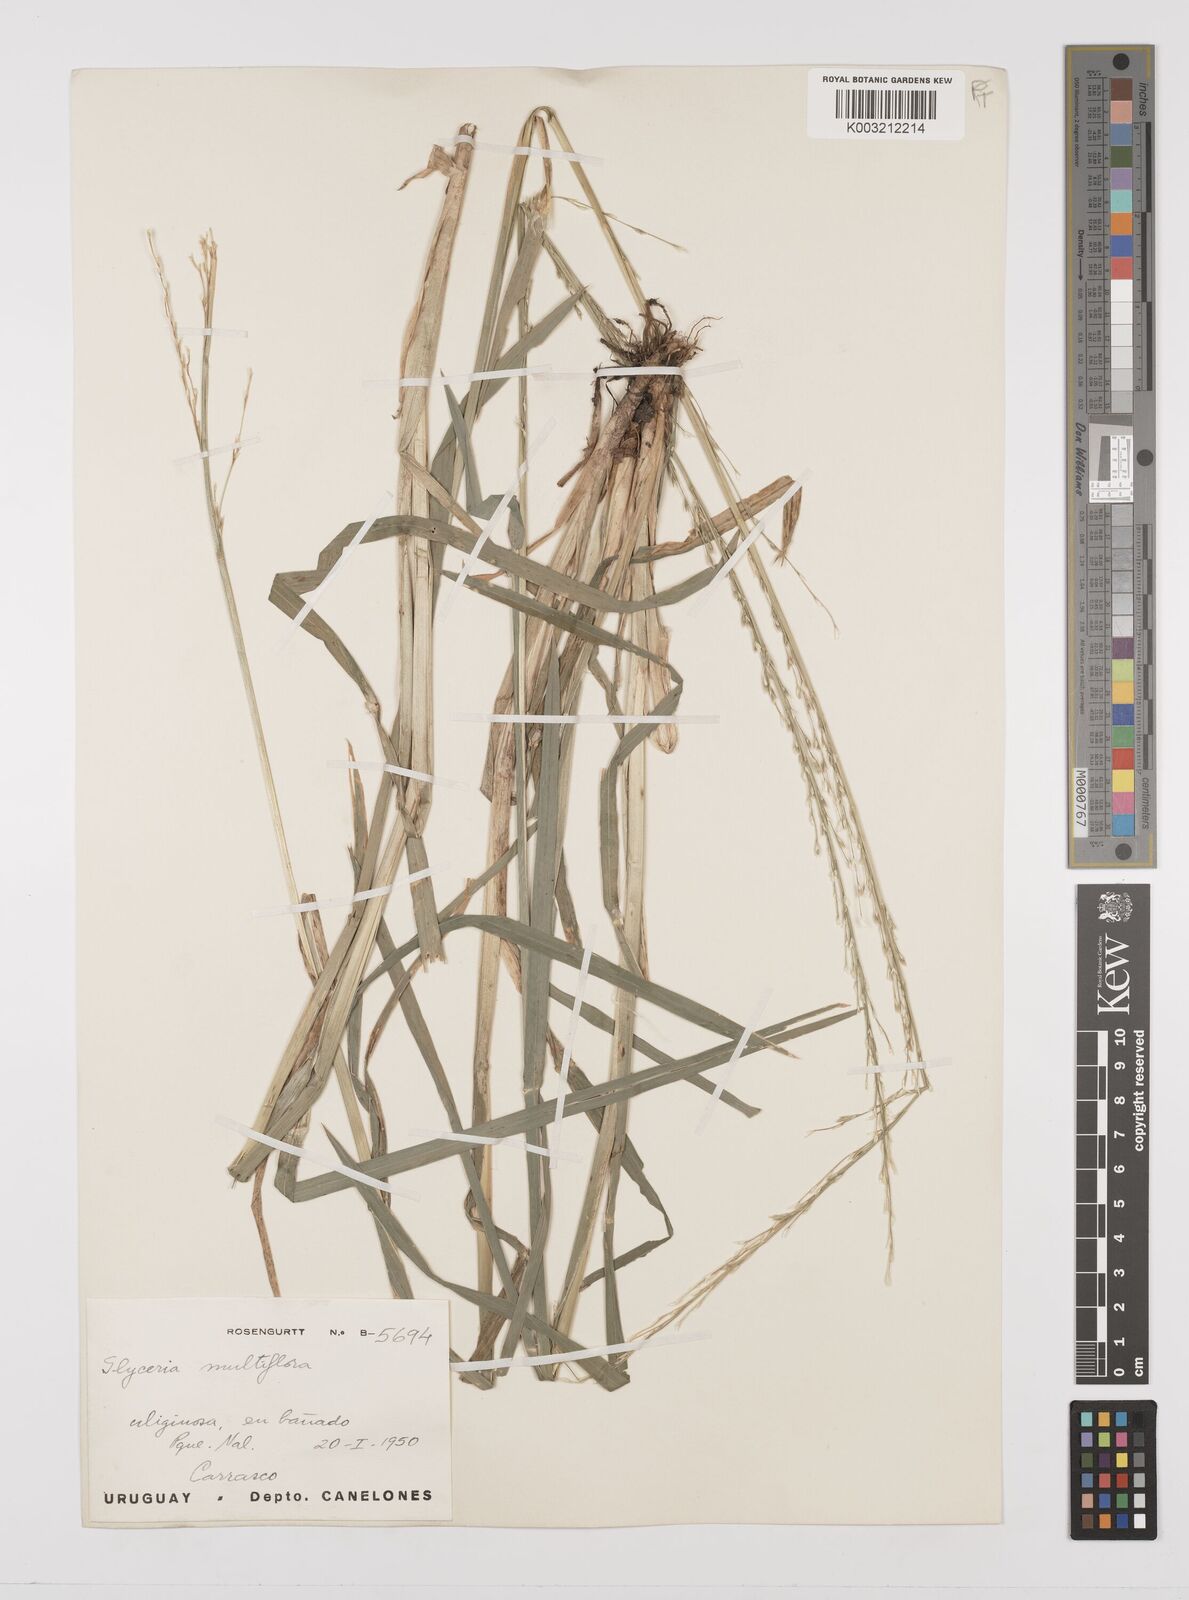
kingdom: Plantae
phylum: Tracheophyta
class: Liliopsida
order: Poales
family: Poaceae
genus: Glyceria
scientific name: Glyceria multiflora
